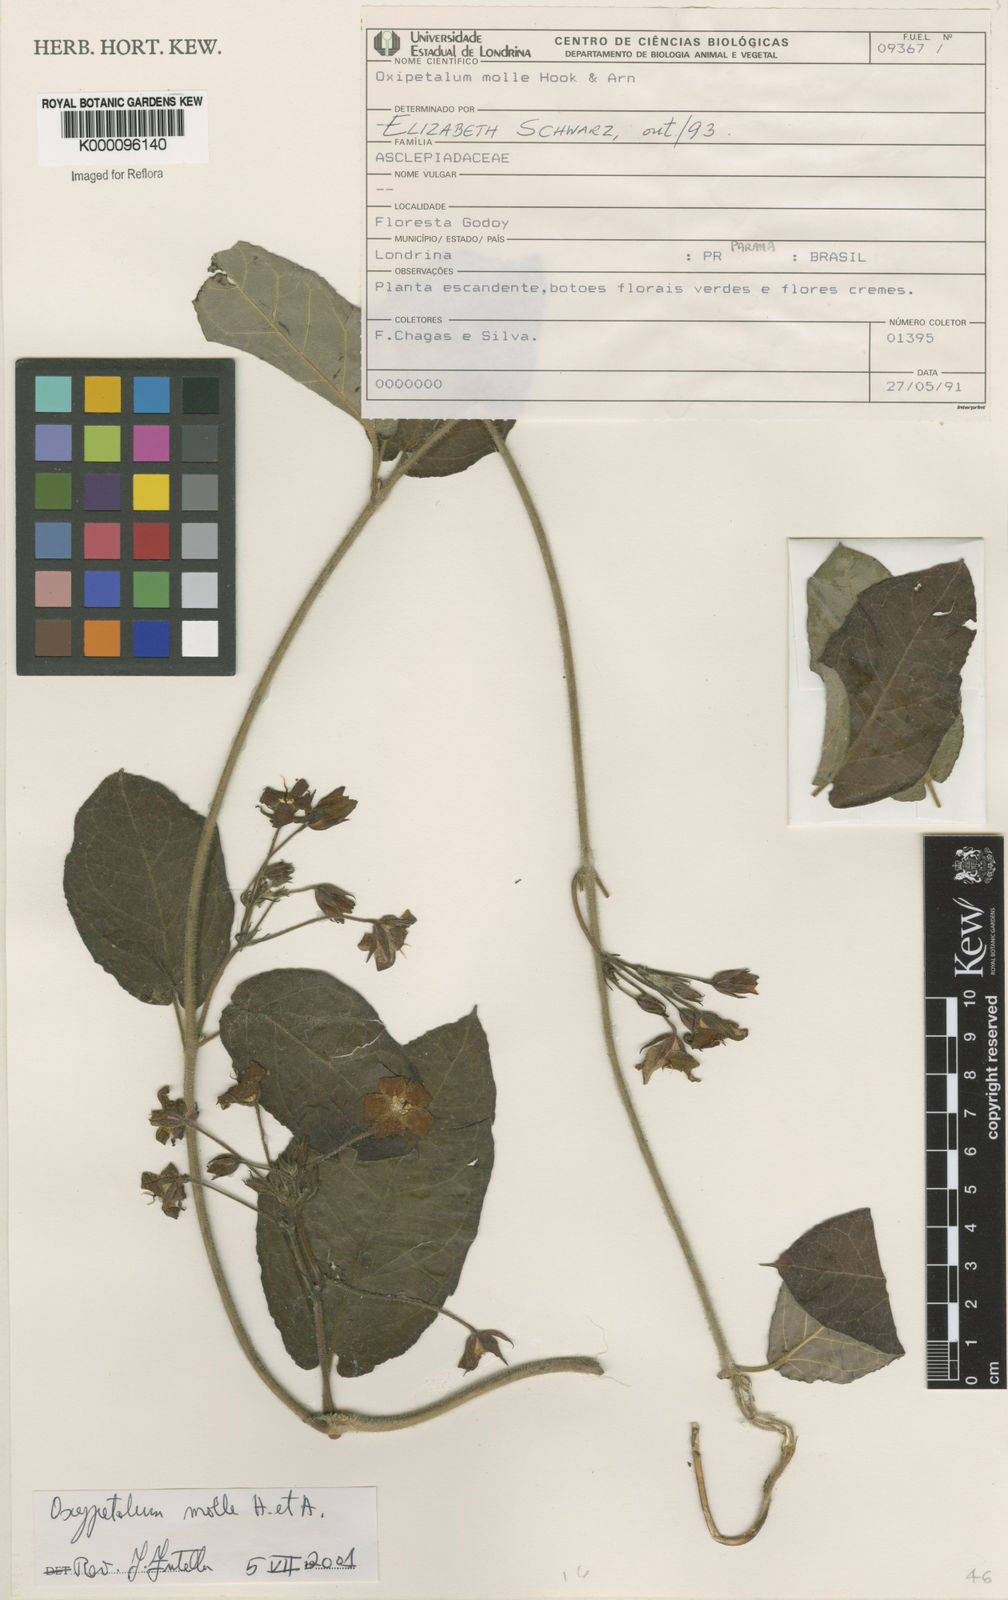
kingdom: Plantae
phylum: Tracheophyta
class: Magnoliopsida
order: Gentianales
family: Apocynaceae
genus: Oxypetalum
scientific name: Oxypetalum molle
